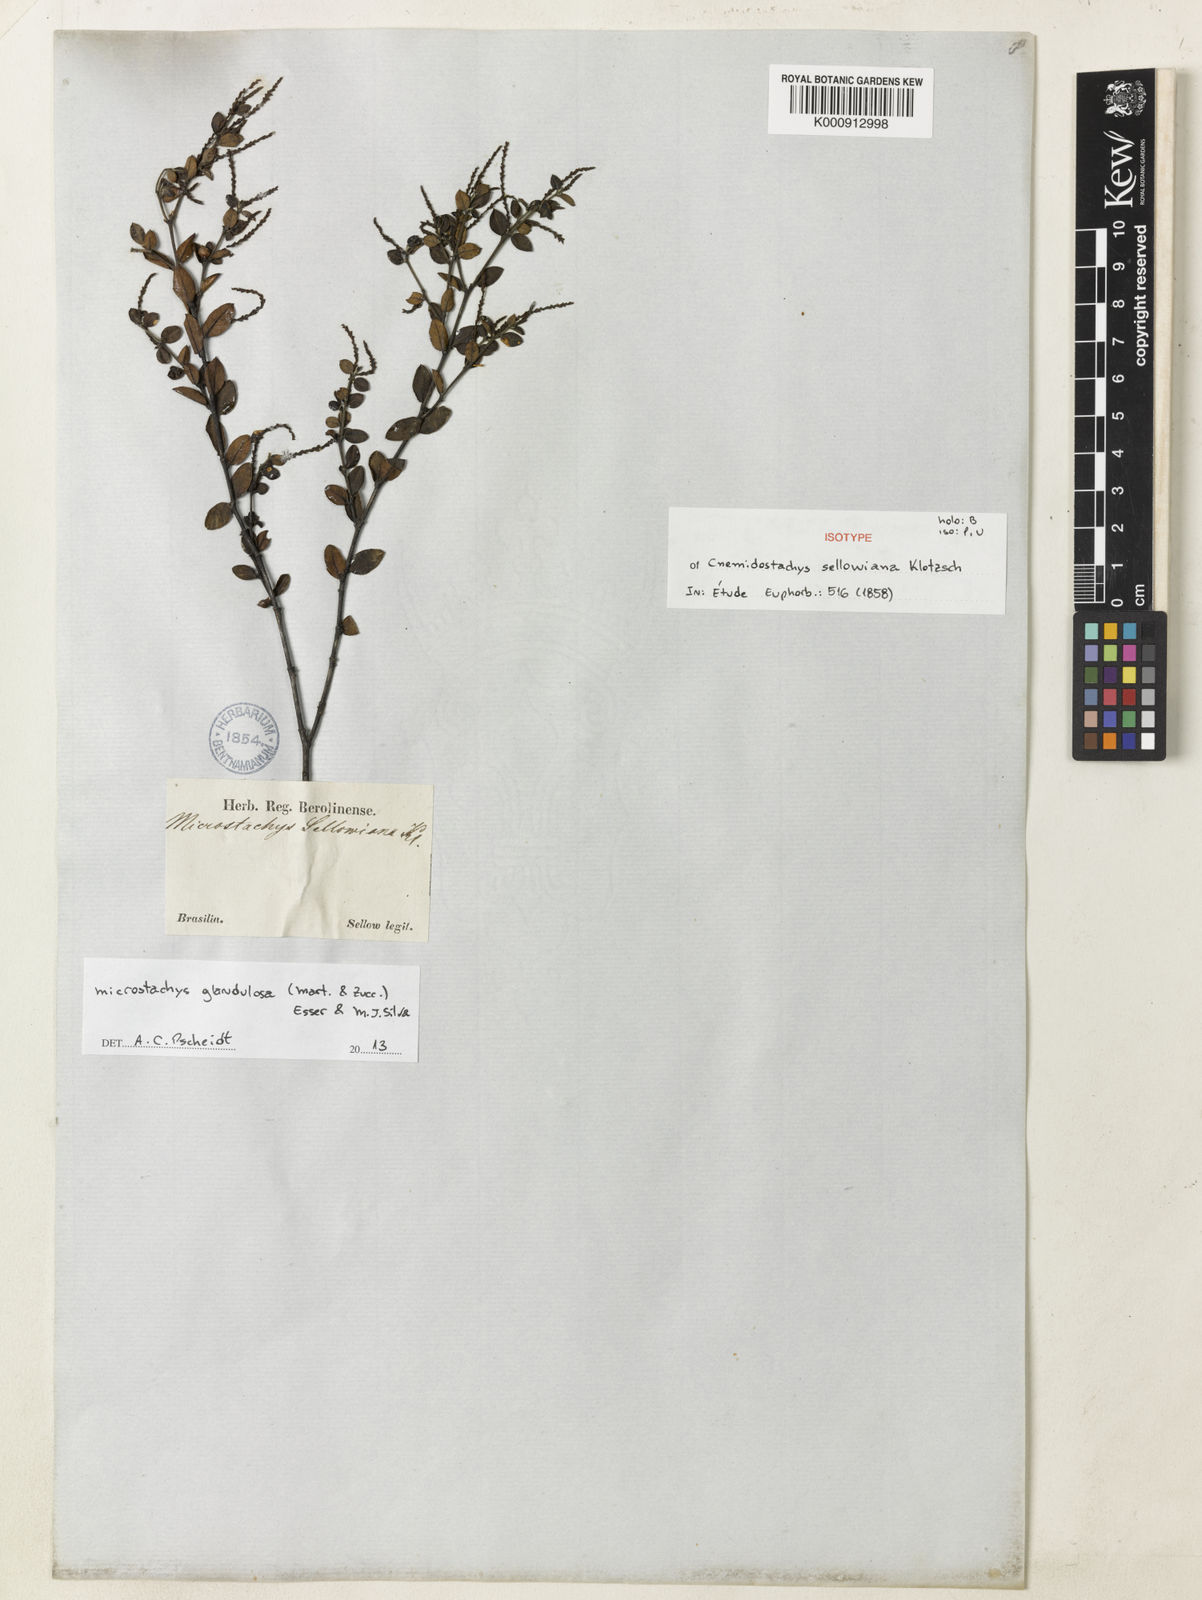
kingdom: Plantae
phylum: Tracheophyta
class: Magnoliopsida
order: Malpighiales
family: Euphorbiaceae
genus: Microstachys
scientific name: Microstachys glandulosa
